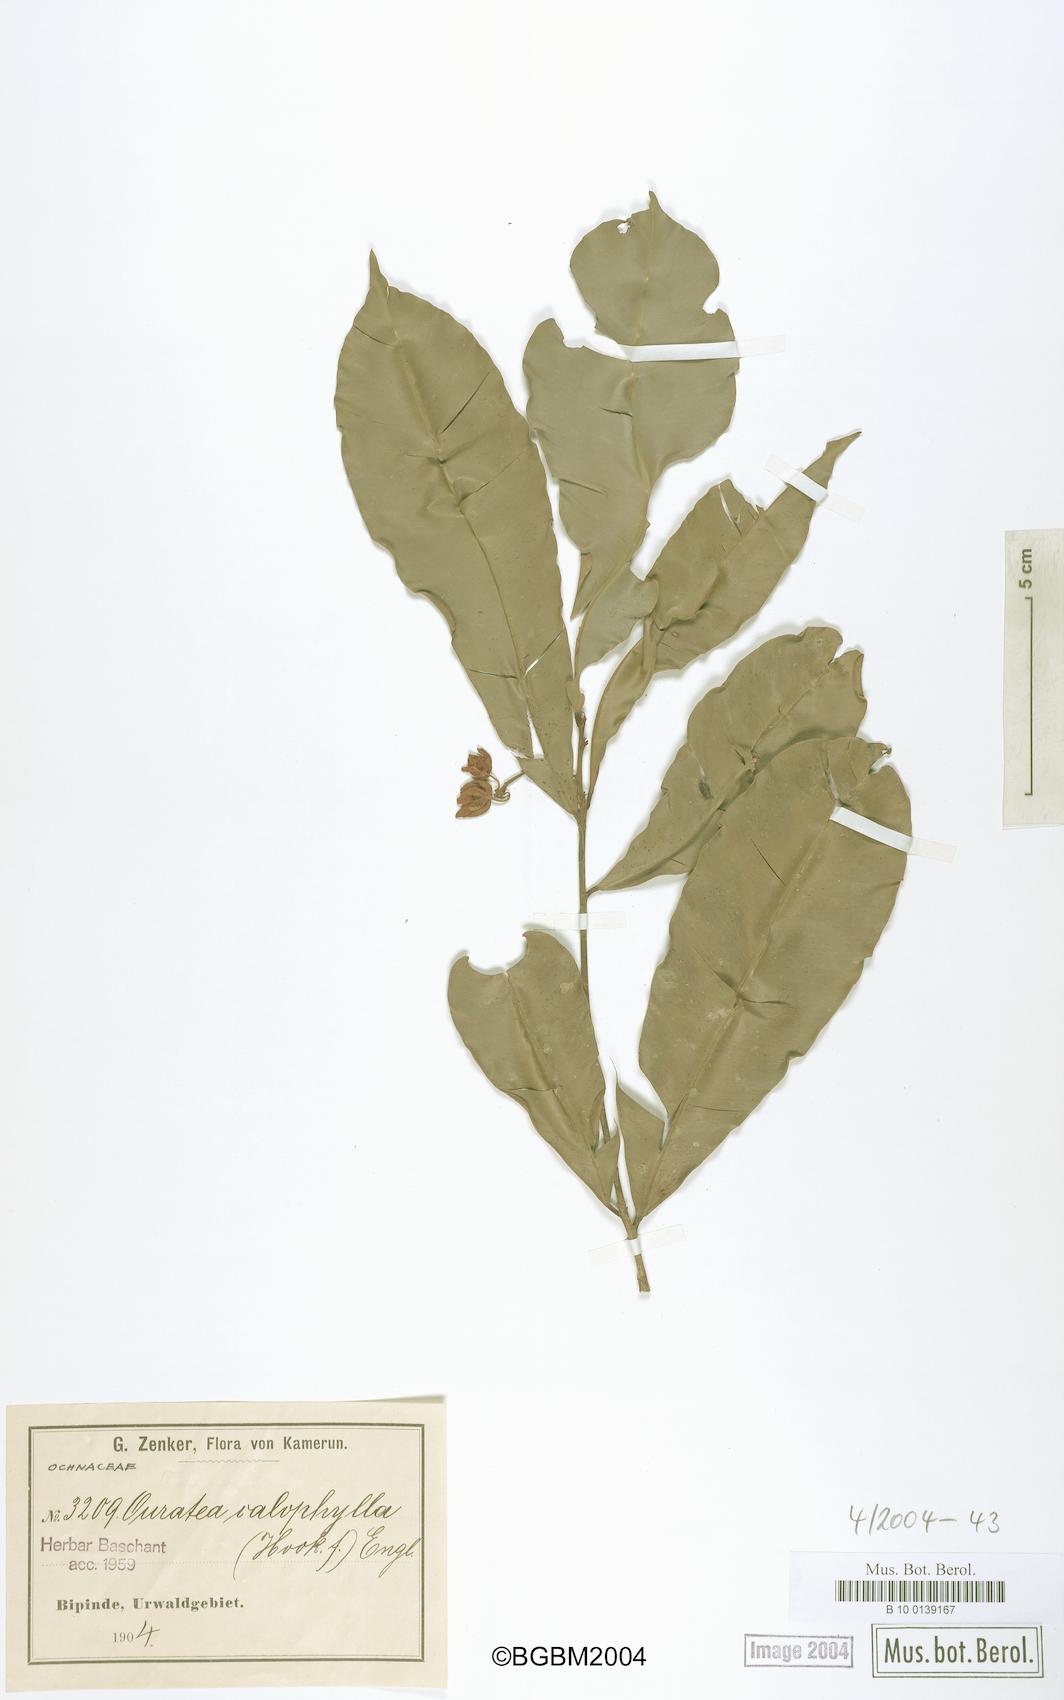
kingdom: Plantae
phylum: Tracheophyta
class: Magnoliopsida
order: Malpighiales
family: Ochnaceae
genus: Rhabdophyllum
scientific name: Rhabdophyllum calophyllum
